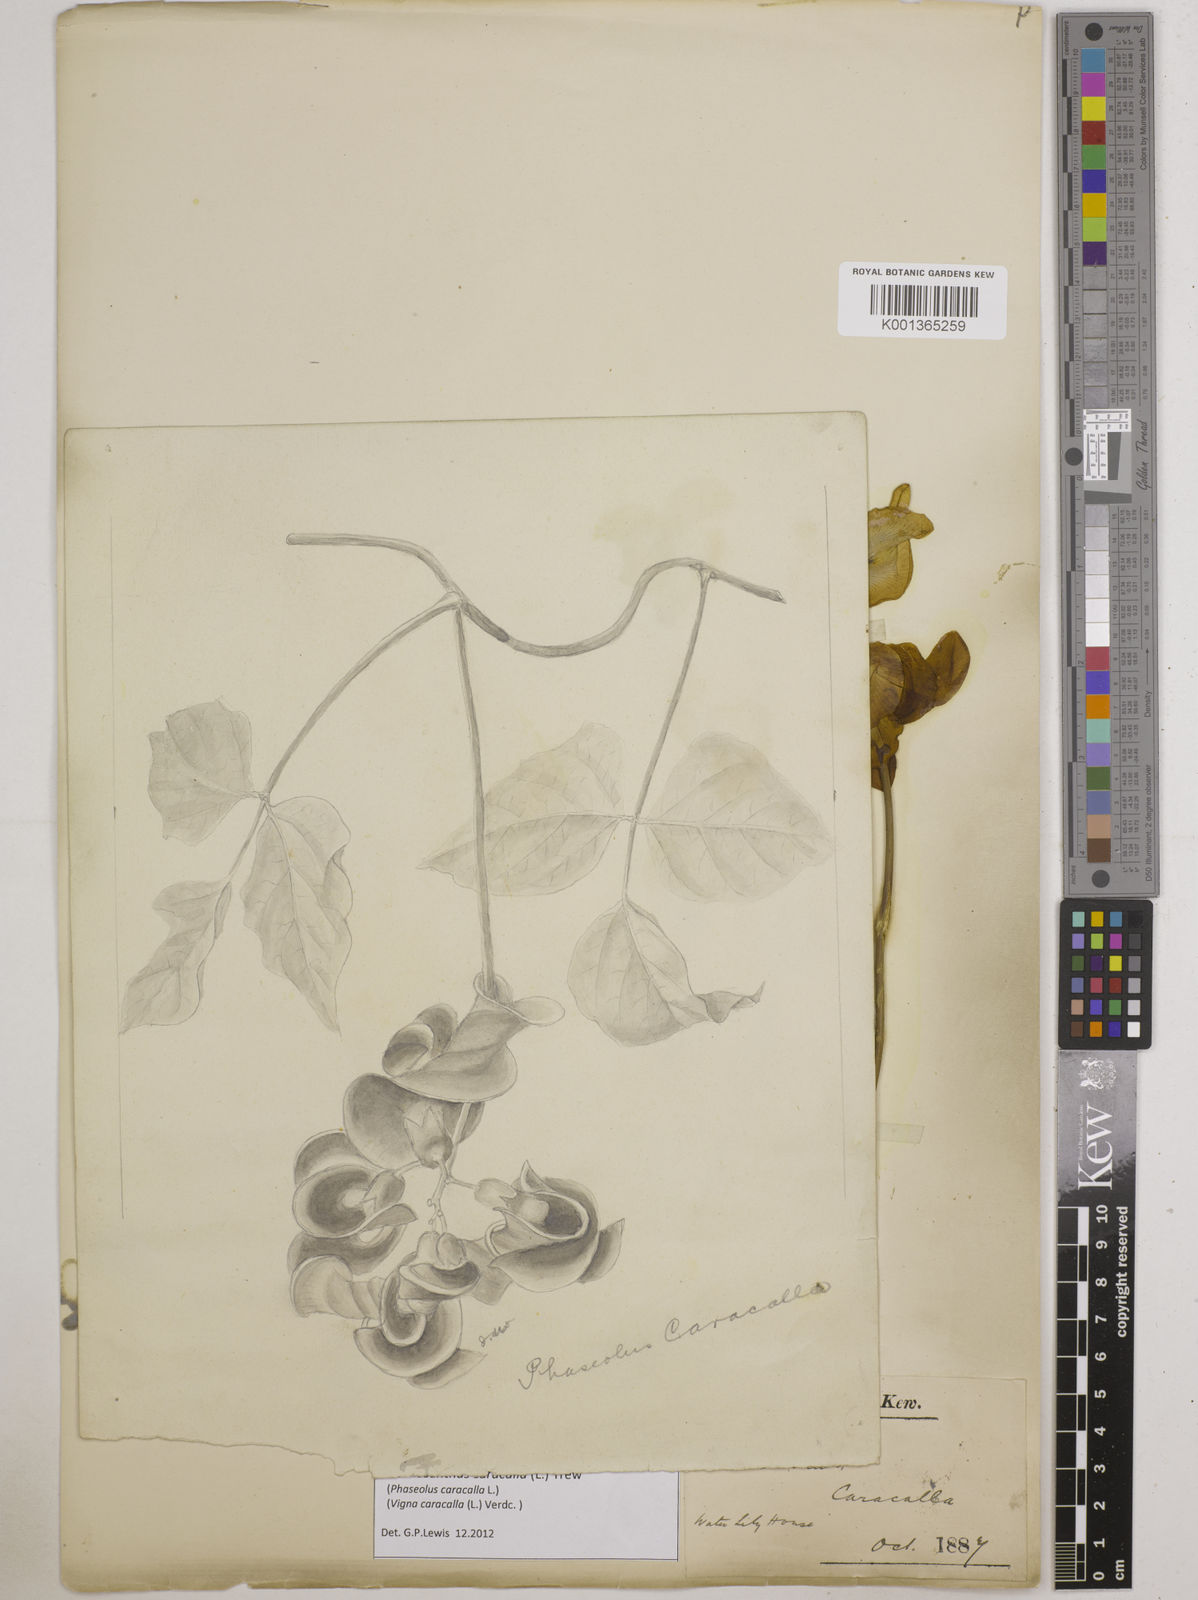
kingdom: Plantae
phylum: Tracheophyta
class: Magnoliopsida
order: Fabales
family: Fabaceae
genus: Cochliasanthus
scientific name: Cochliasanthus caracalla
